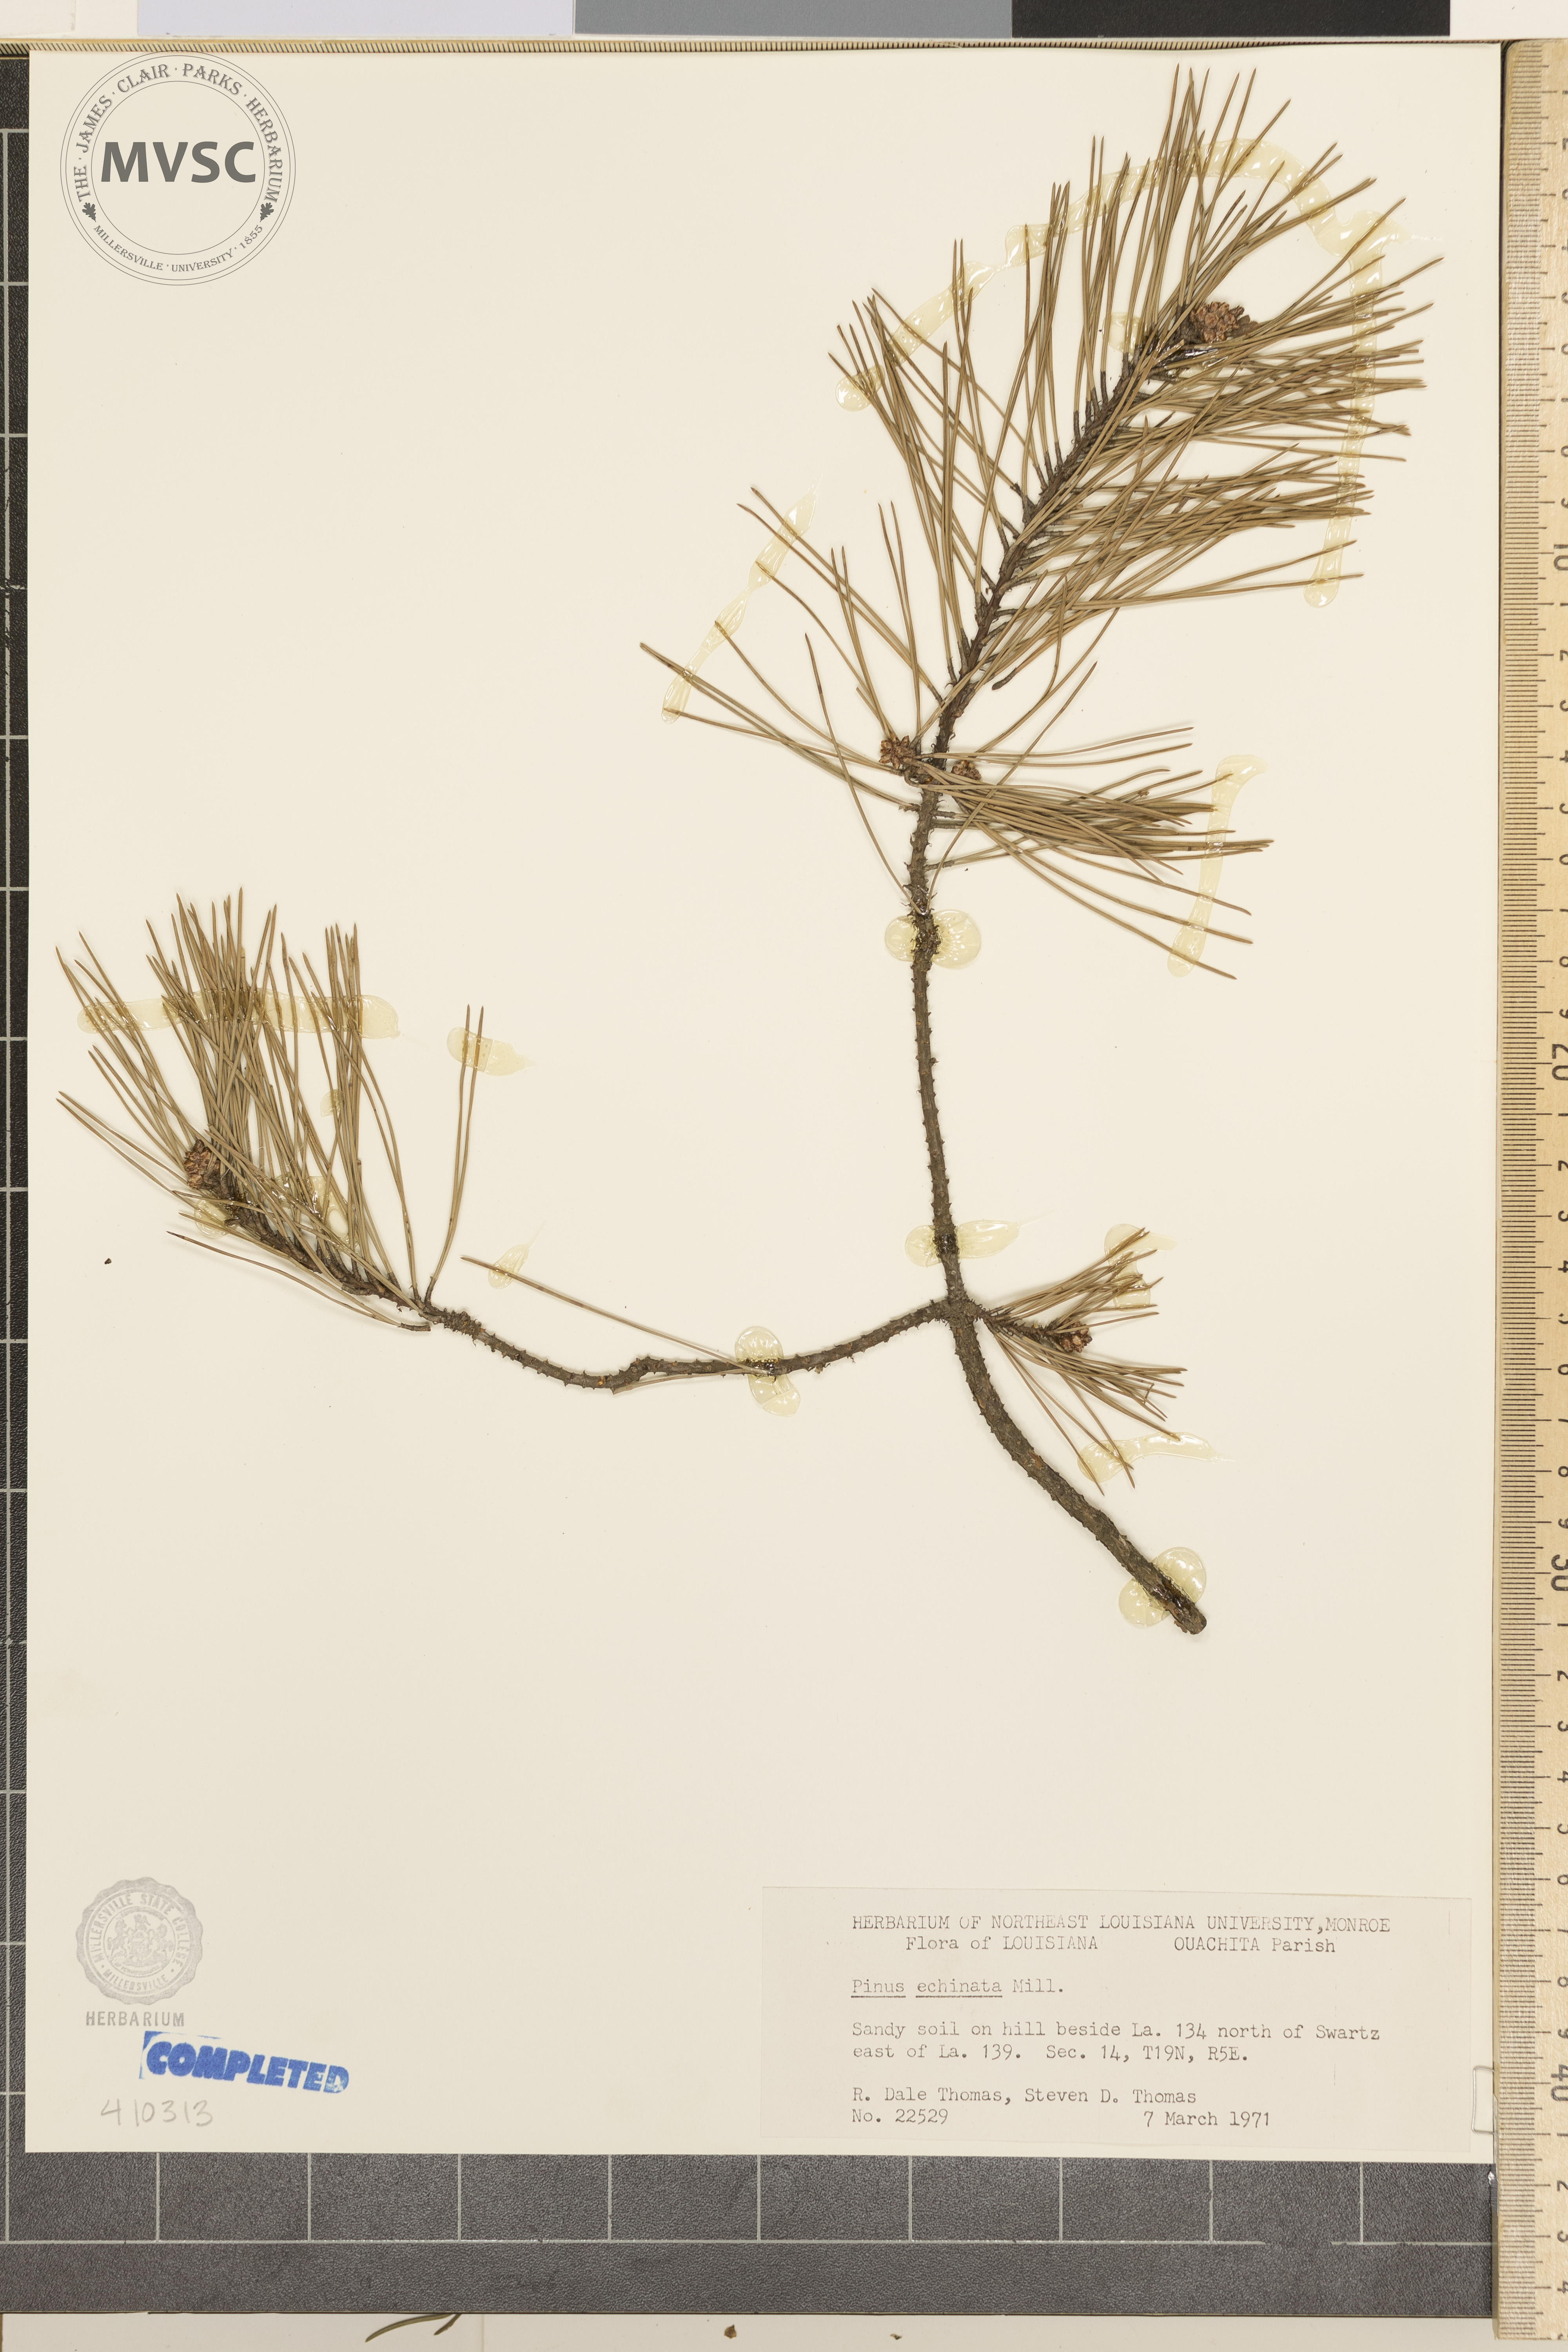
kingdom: Plantae
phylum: Tracheophyta
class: Pinopsida
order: Pinales
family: Pinaceae
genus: Pinus
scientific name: Pinus echinata
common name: Shortleaf pine
